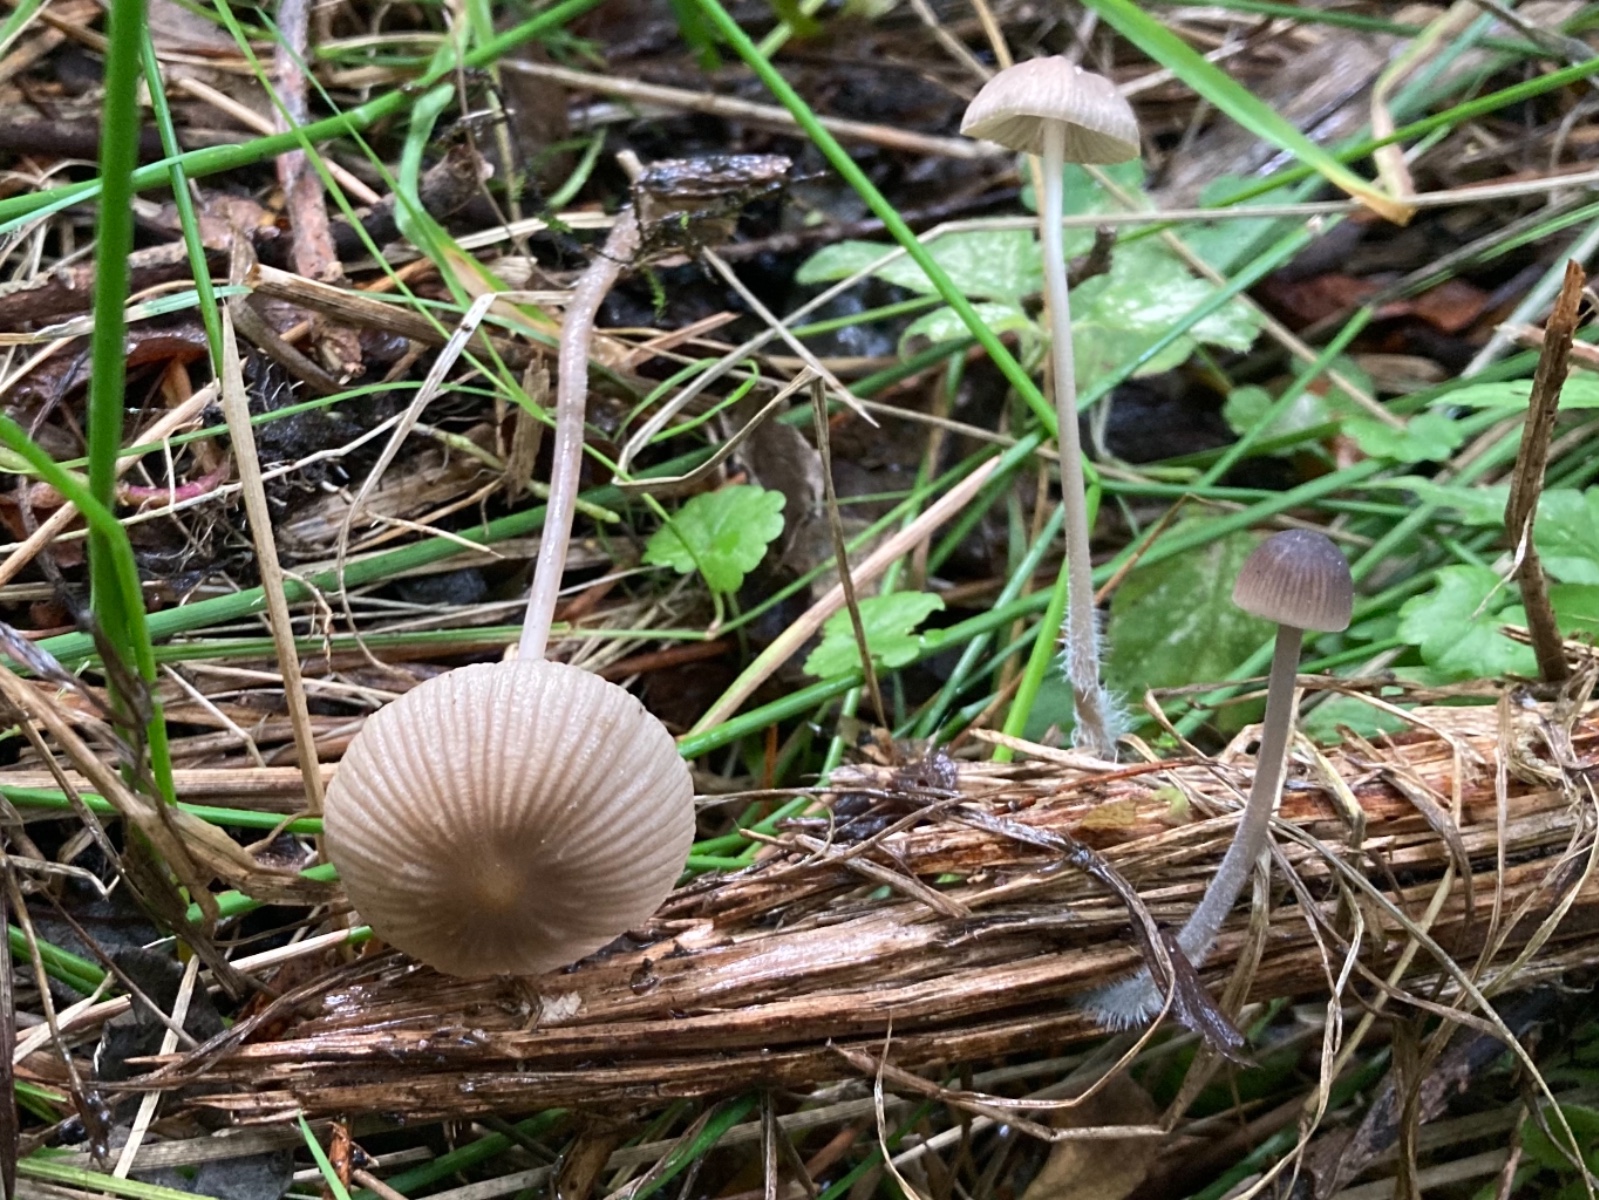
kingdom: Fungi
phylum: Basidiomycota
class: Agaricomycetes
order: Agaricales
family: Mycenaceae
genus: Mycena
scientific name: Mycena leptocephala
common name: klor-huesvamp
